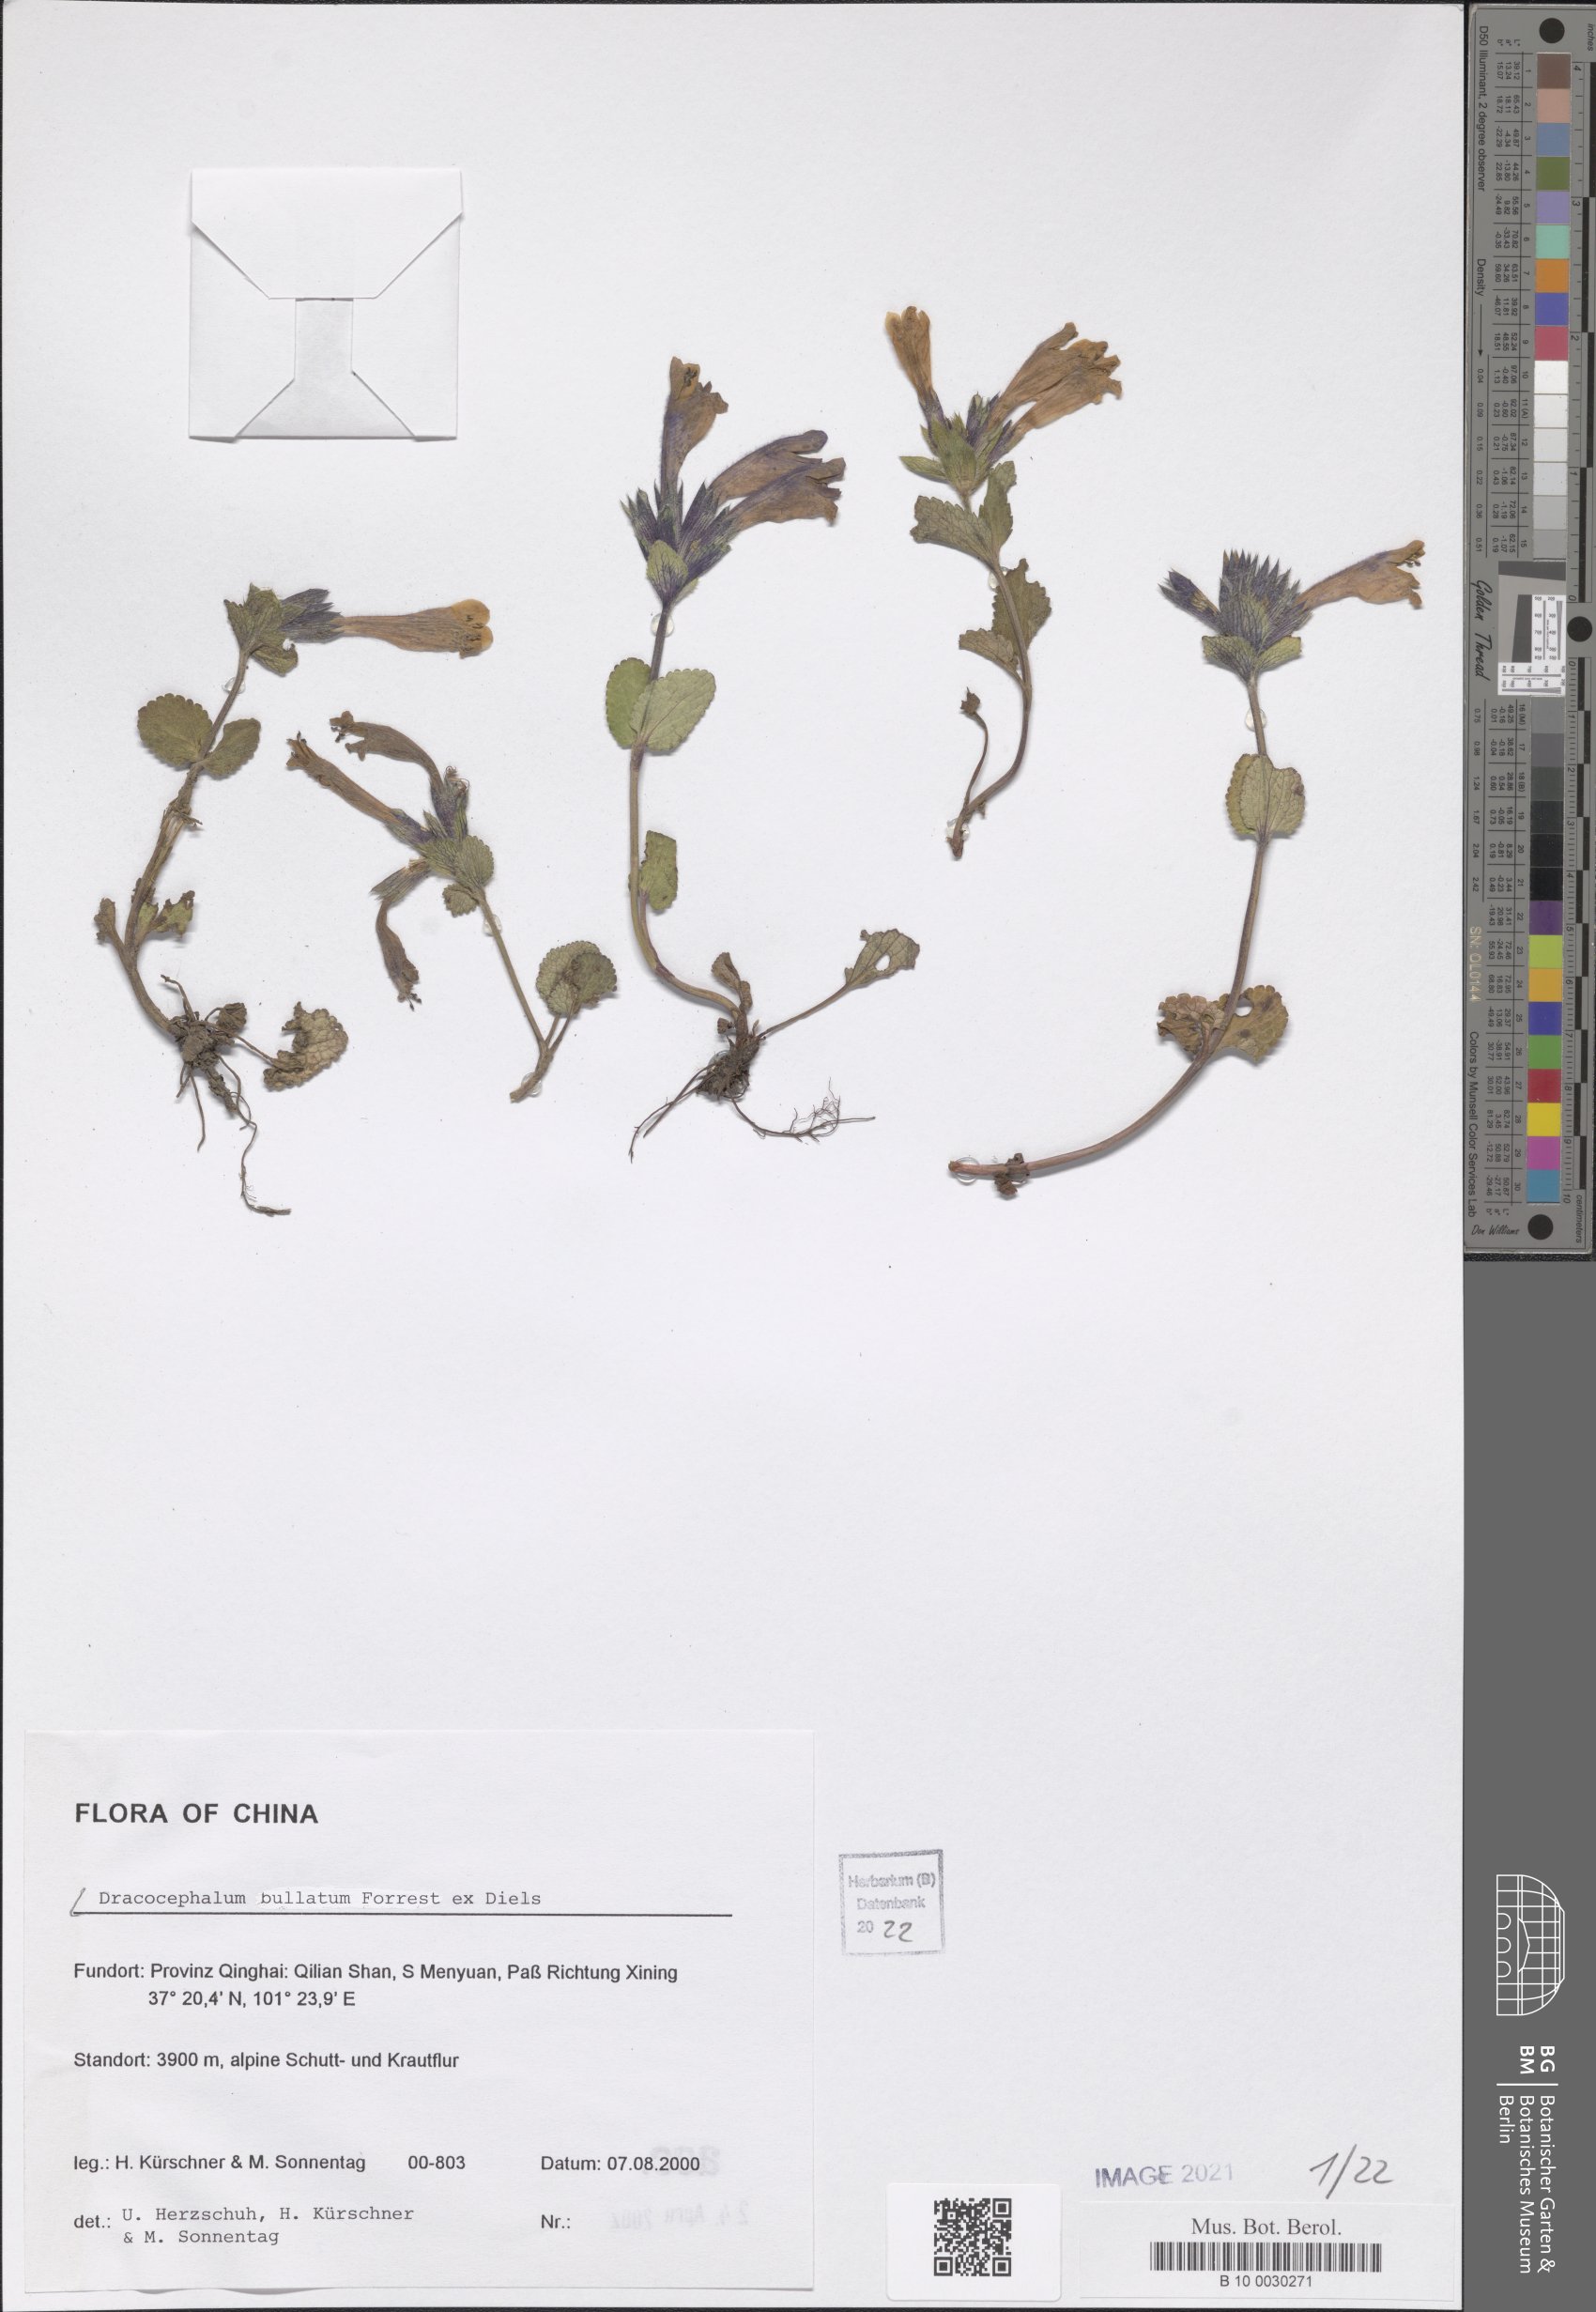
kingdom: Plantae
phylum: Tracheophyta
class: Magnoliopsida
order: Lamiales
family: Lamiaceae
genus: Dracocephalum
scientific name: Dracocephalum bullatum
